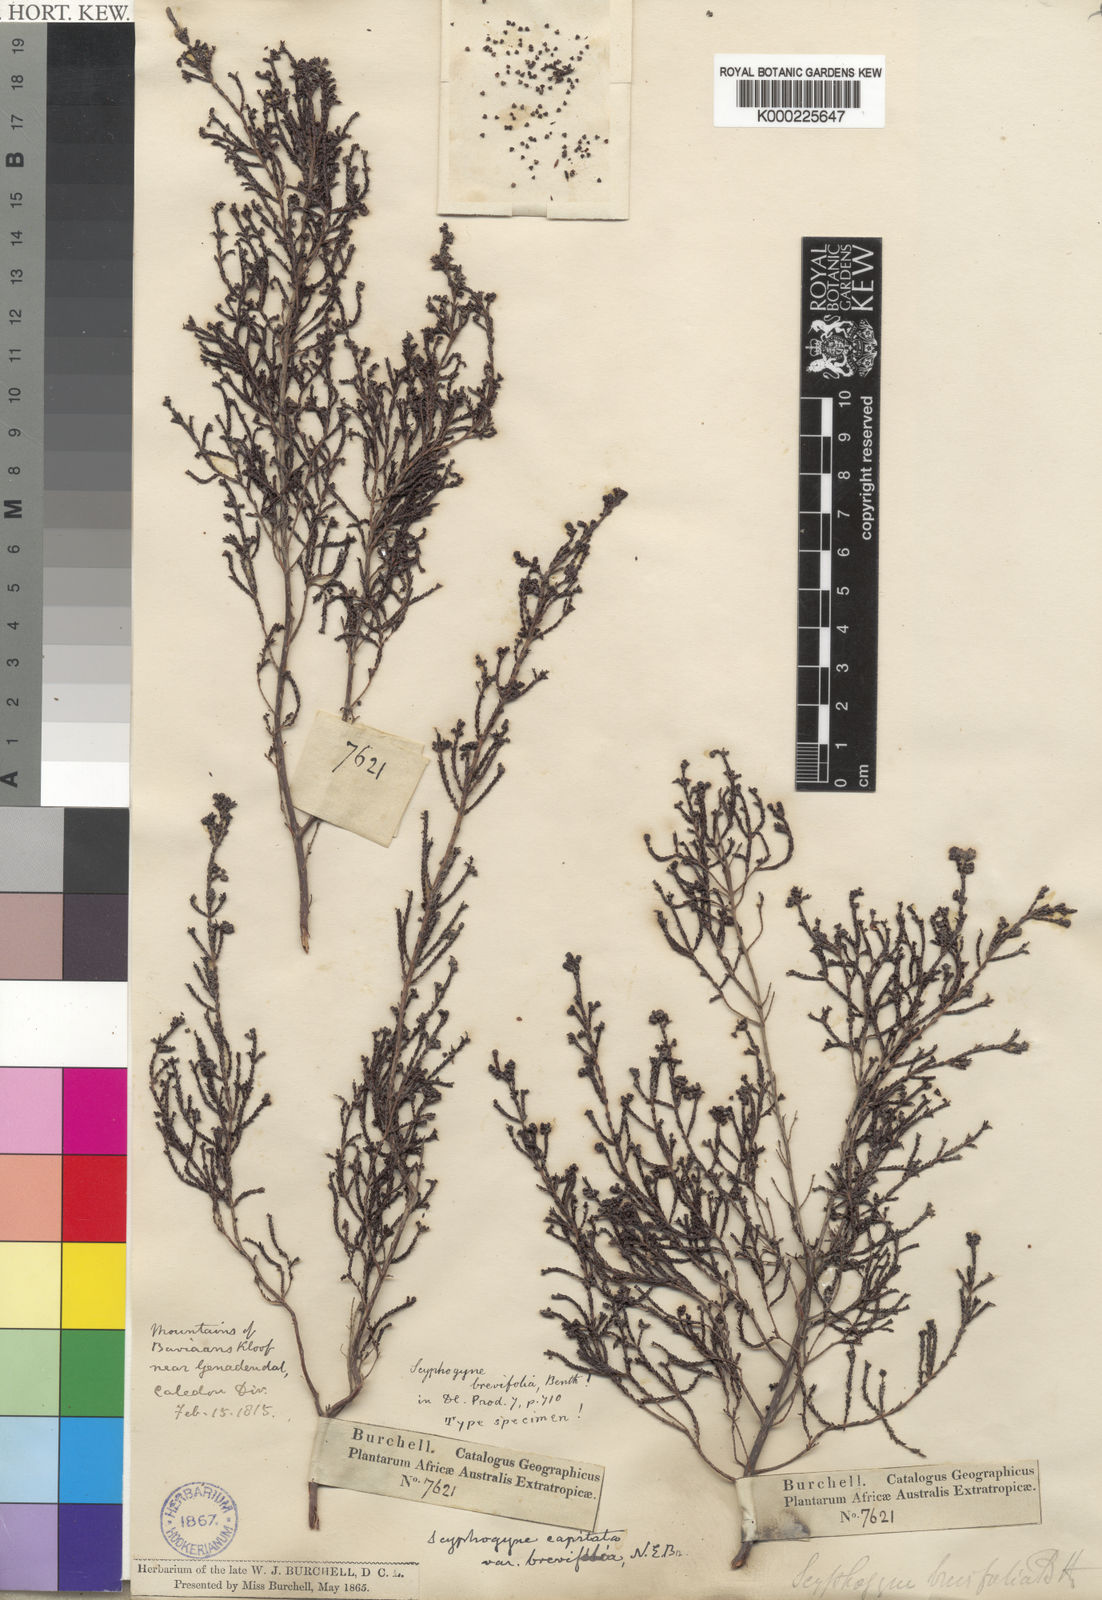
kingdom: Plantae
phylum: Tracheophyta
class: Magnoliopsida
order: Ericales
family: Ericaceae
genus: Erica
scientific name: Erica phacelanthera
